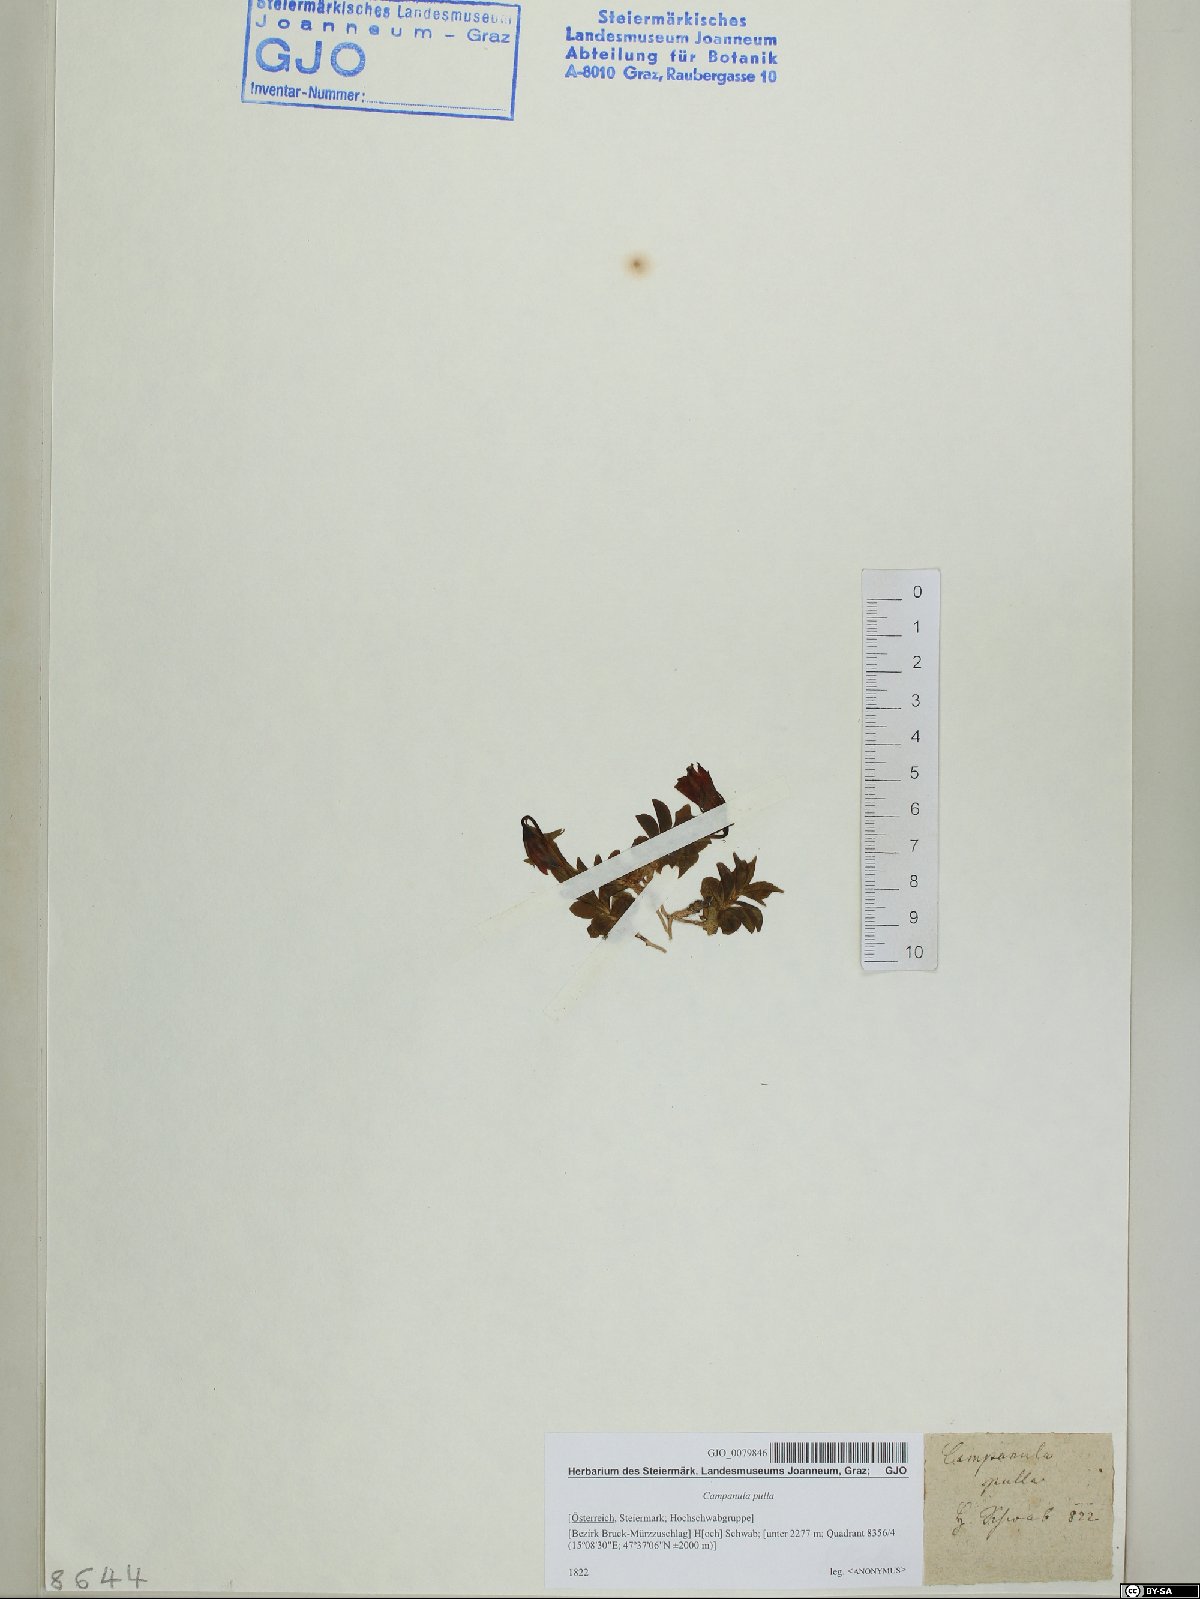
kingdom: Plantae
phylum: Tracheophyta
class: Magnoliopsida
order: Asterales
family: Campanulaceae
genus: Campanula
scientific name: Campanula pulla
